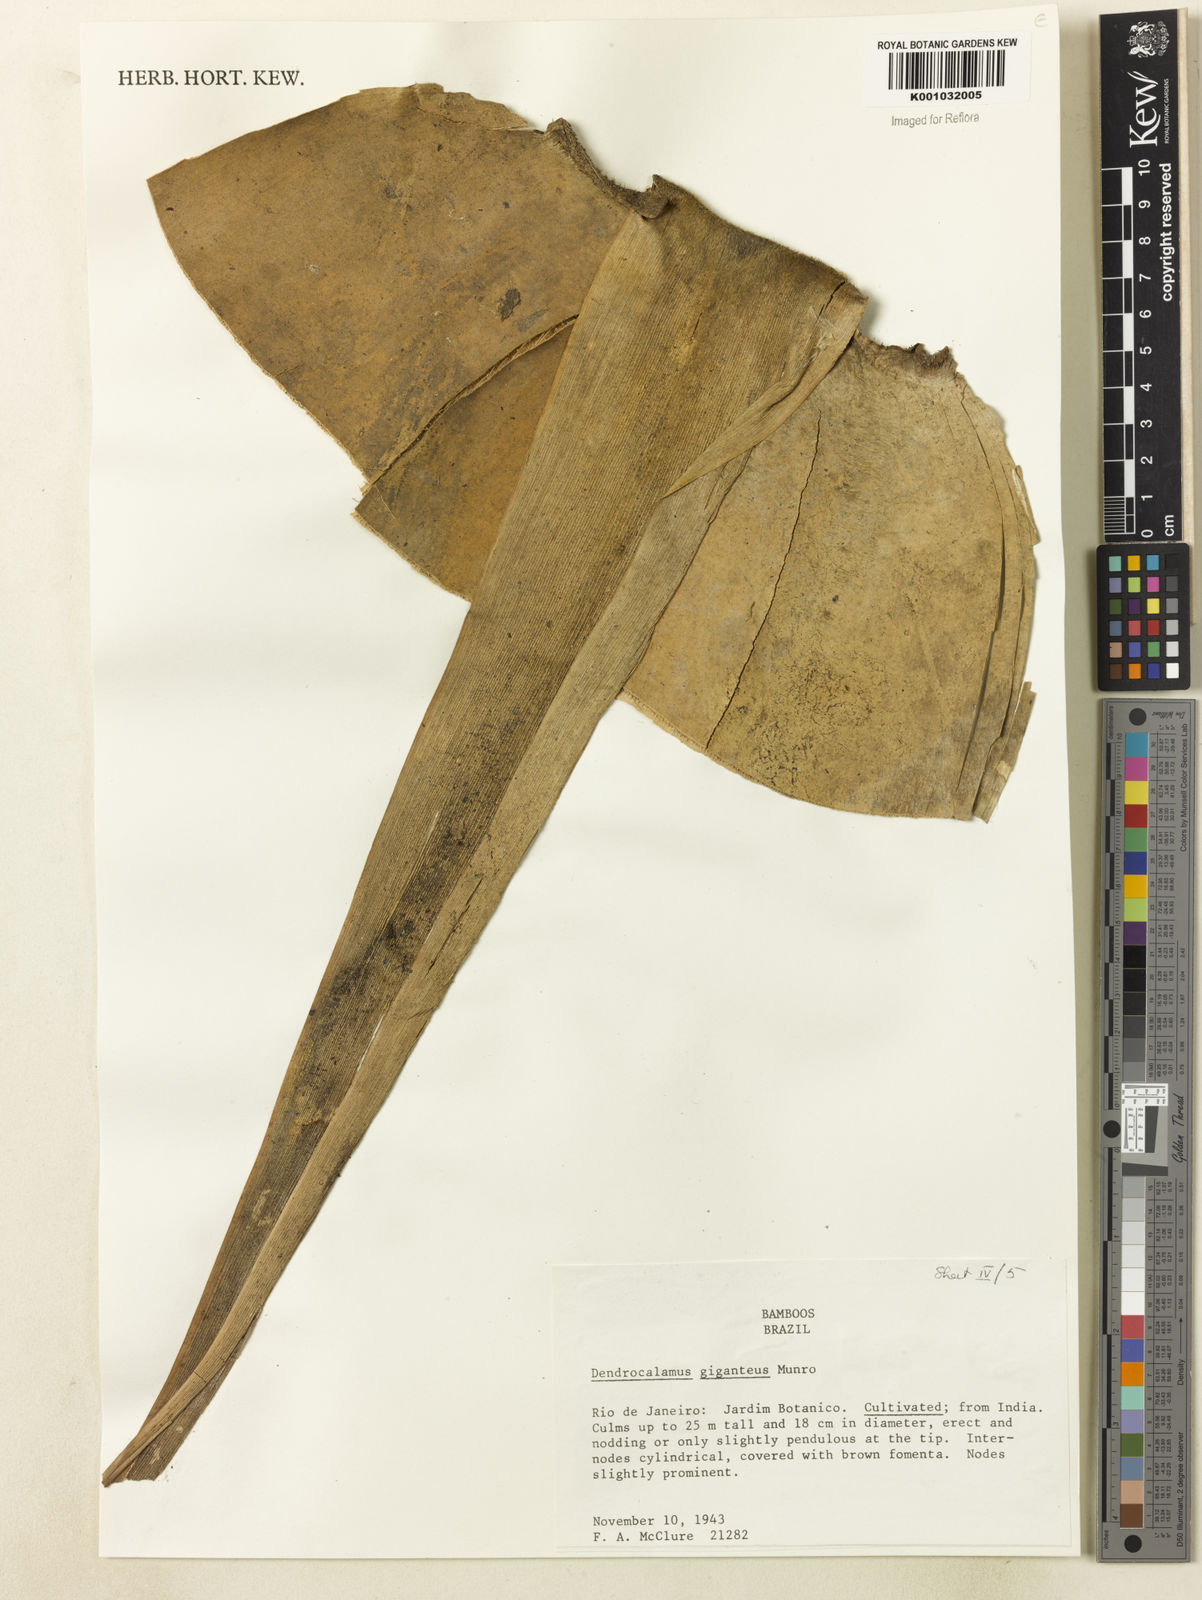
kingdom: Plantae
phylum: Tracheophyta
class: Liliopsida
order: Poales
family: Poaceae
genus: Dendrocalamus
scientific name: Dendrocalamus giganteus
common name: Giant bamboo
